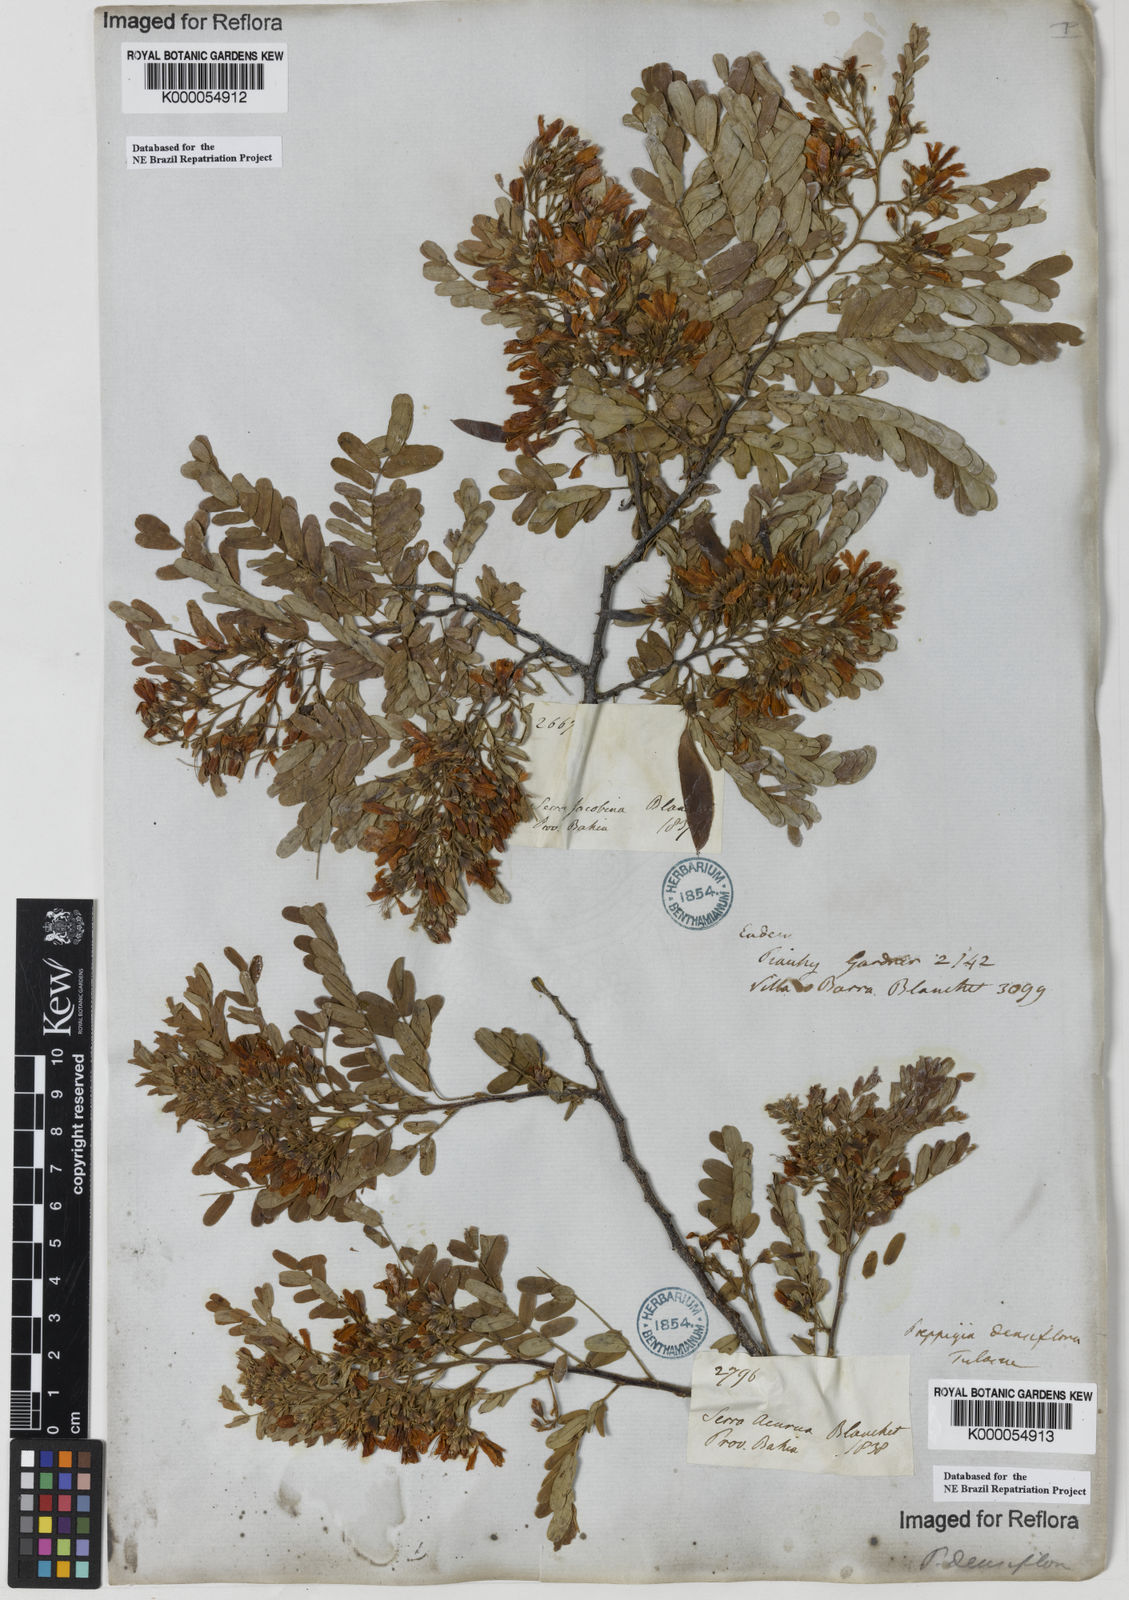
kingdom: Plantae
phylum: Tracheophyta
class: Magnoliopsida
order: Fabales
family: Fabaceae
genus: Poeppigia
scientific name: Poeppigia procera
